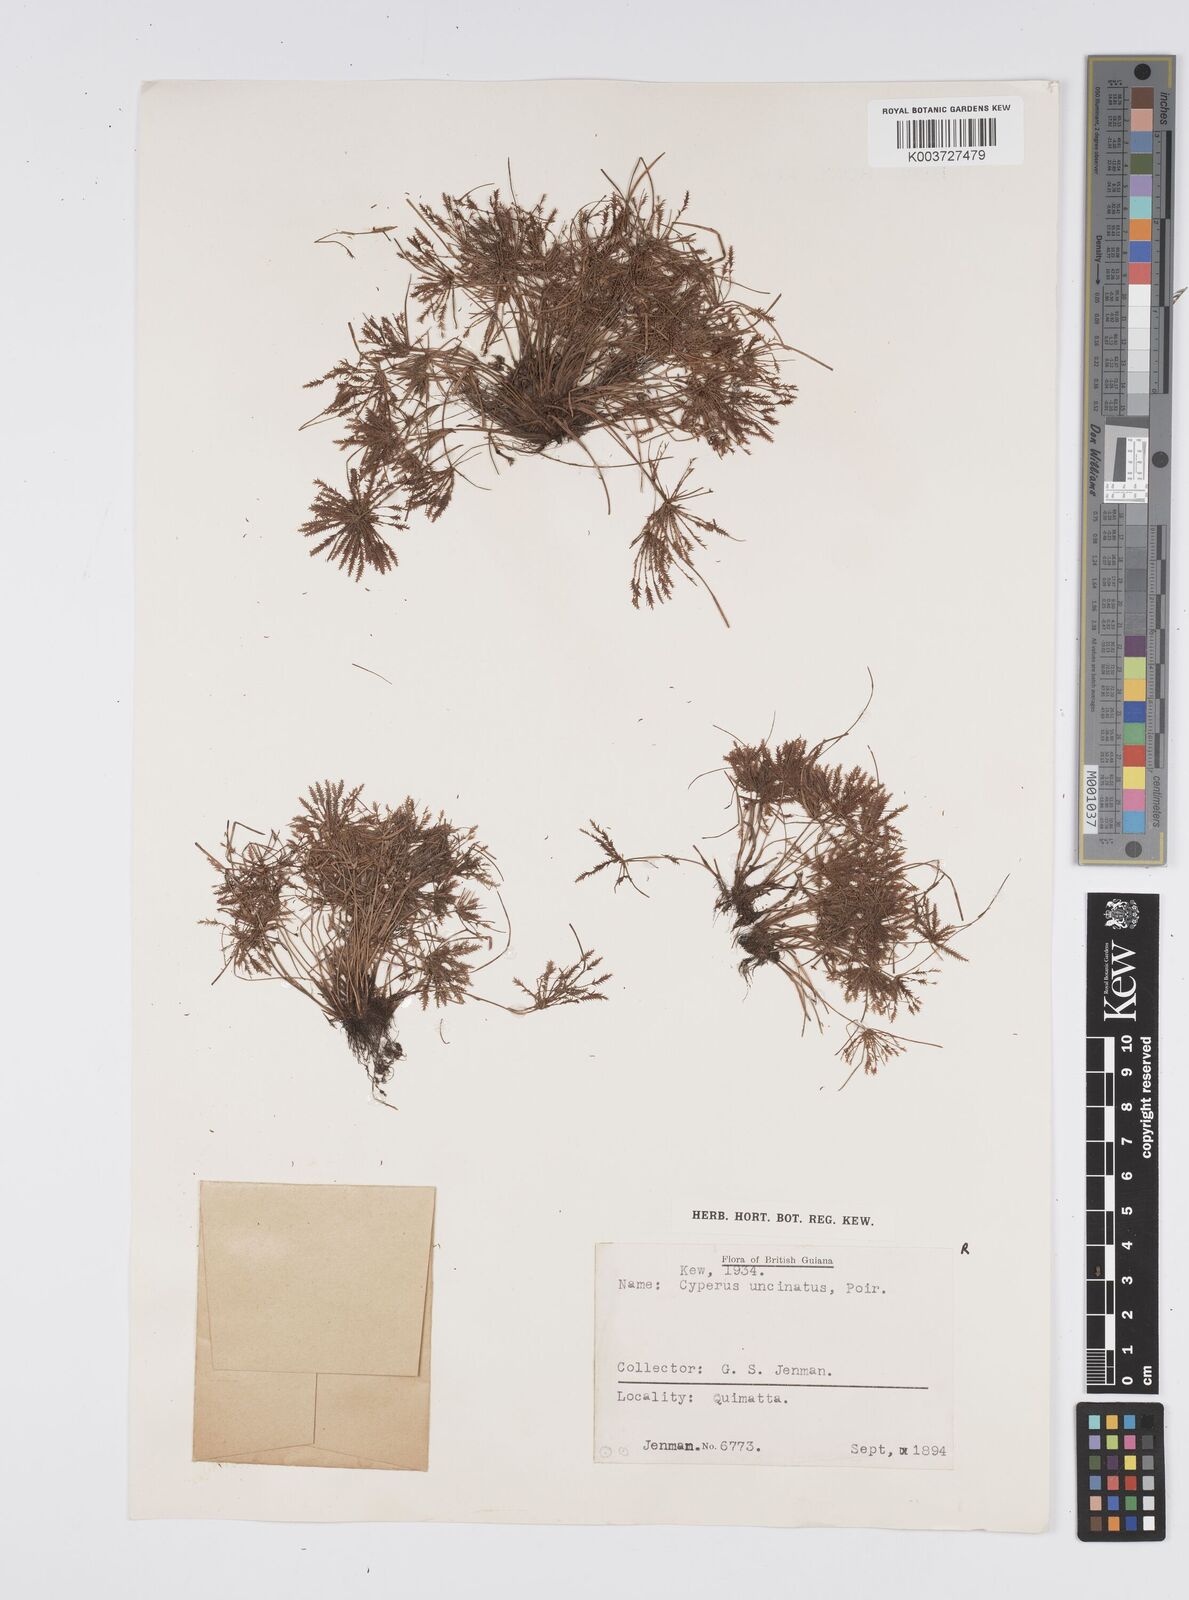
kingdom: Plantae
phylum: Tracheophyta
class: Liliopsida
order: Poales
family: Cyperaceae
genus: Cyperus
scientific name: Cyperus cuspidatus
